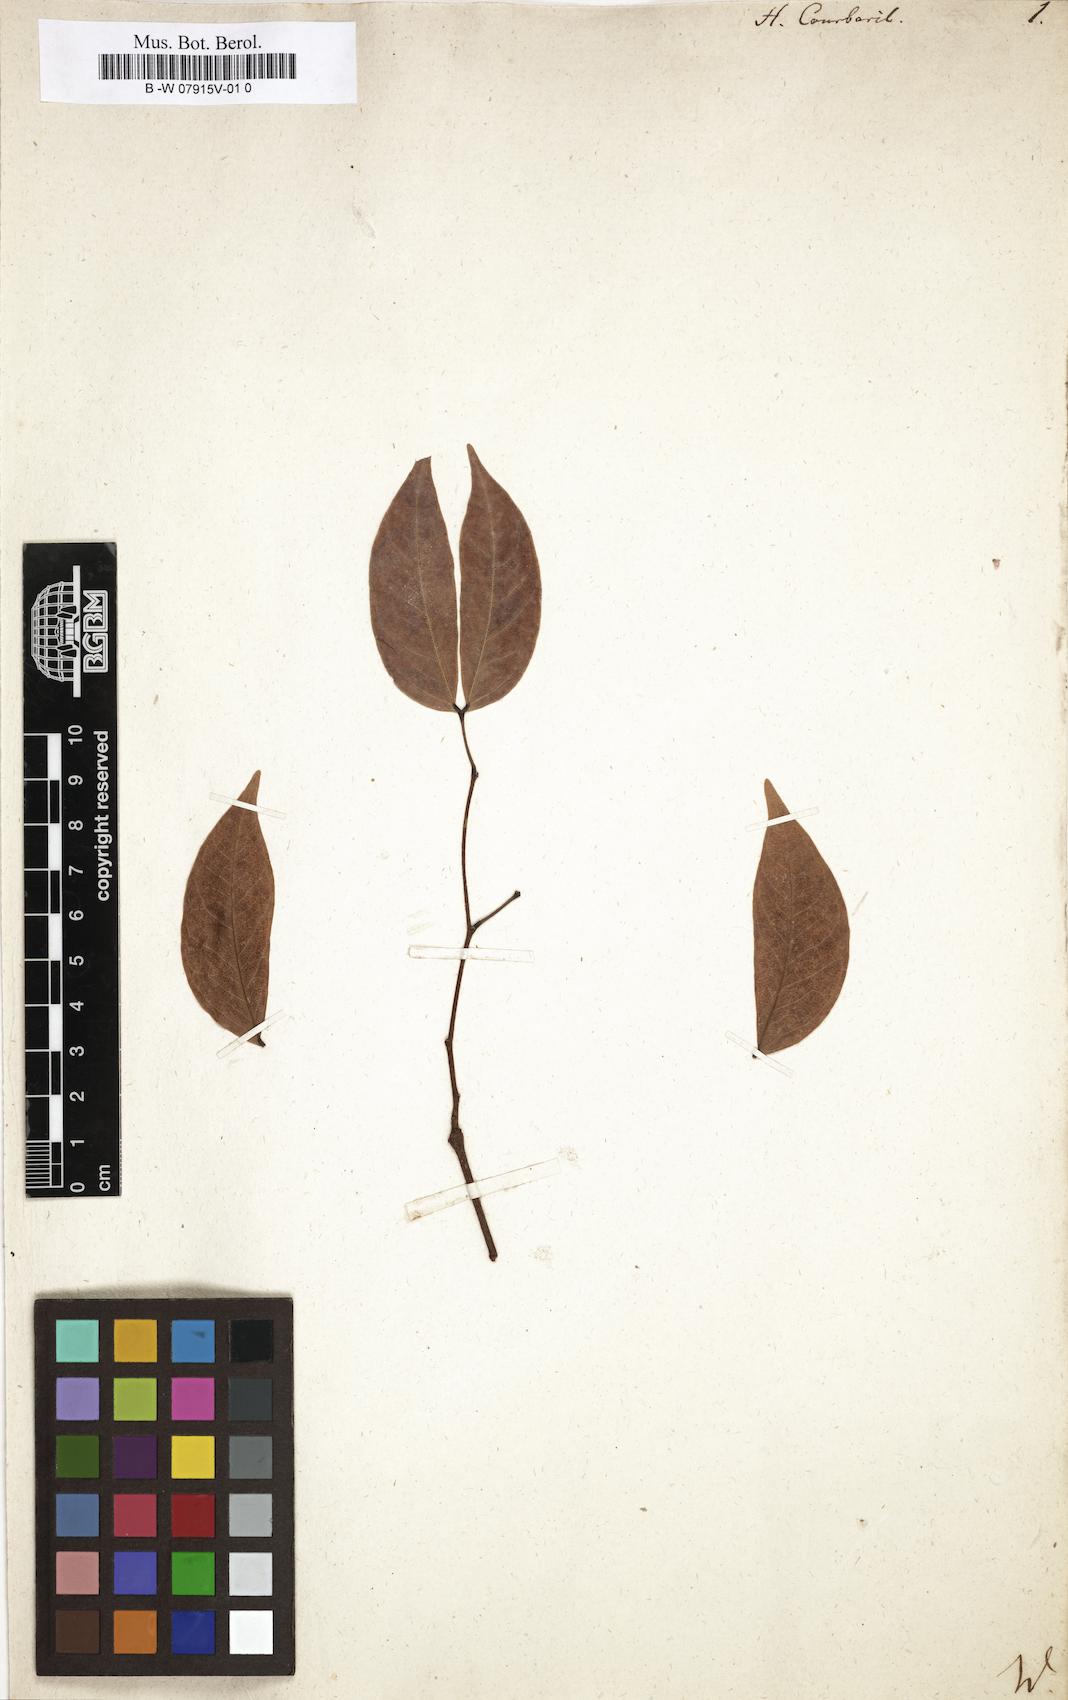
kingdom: Plantae
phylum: Tracheophyta
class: Magnoliopsida
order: Fabales
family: Fabaceae
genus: Hymenaea
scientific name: Hymenaea courbaril
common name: Brazilian copal
